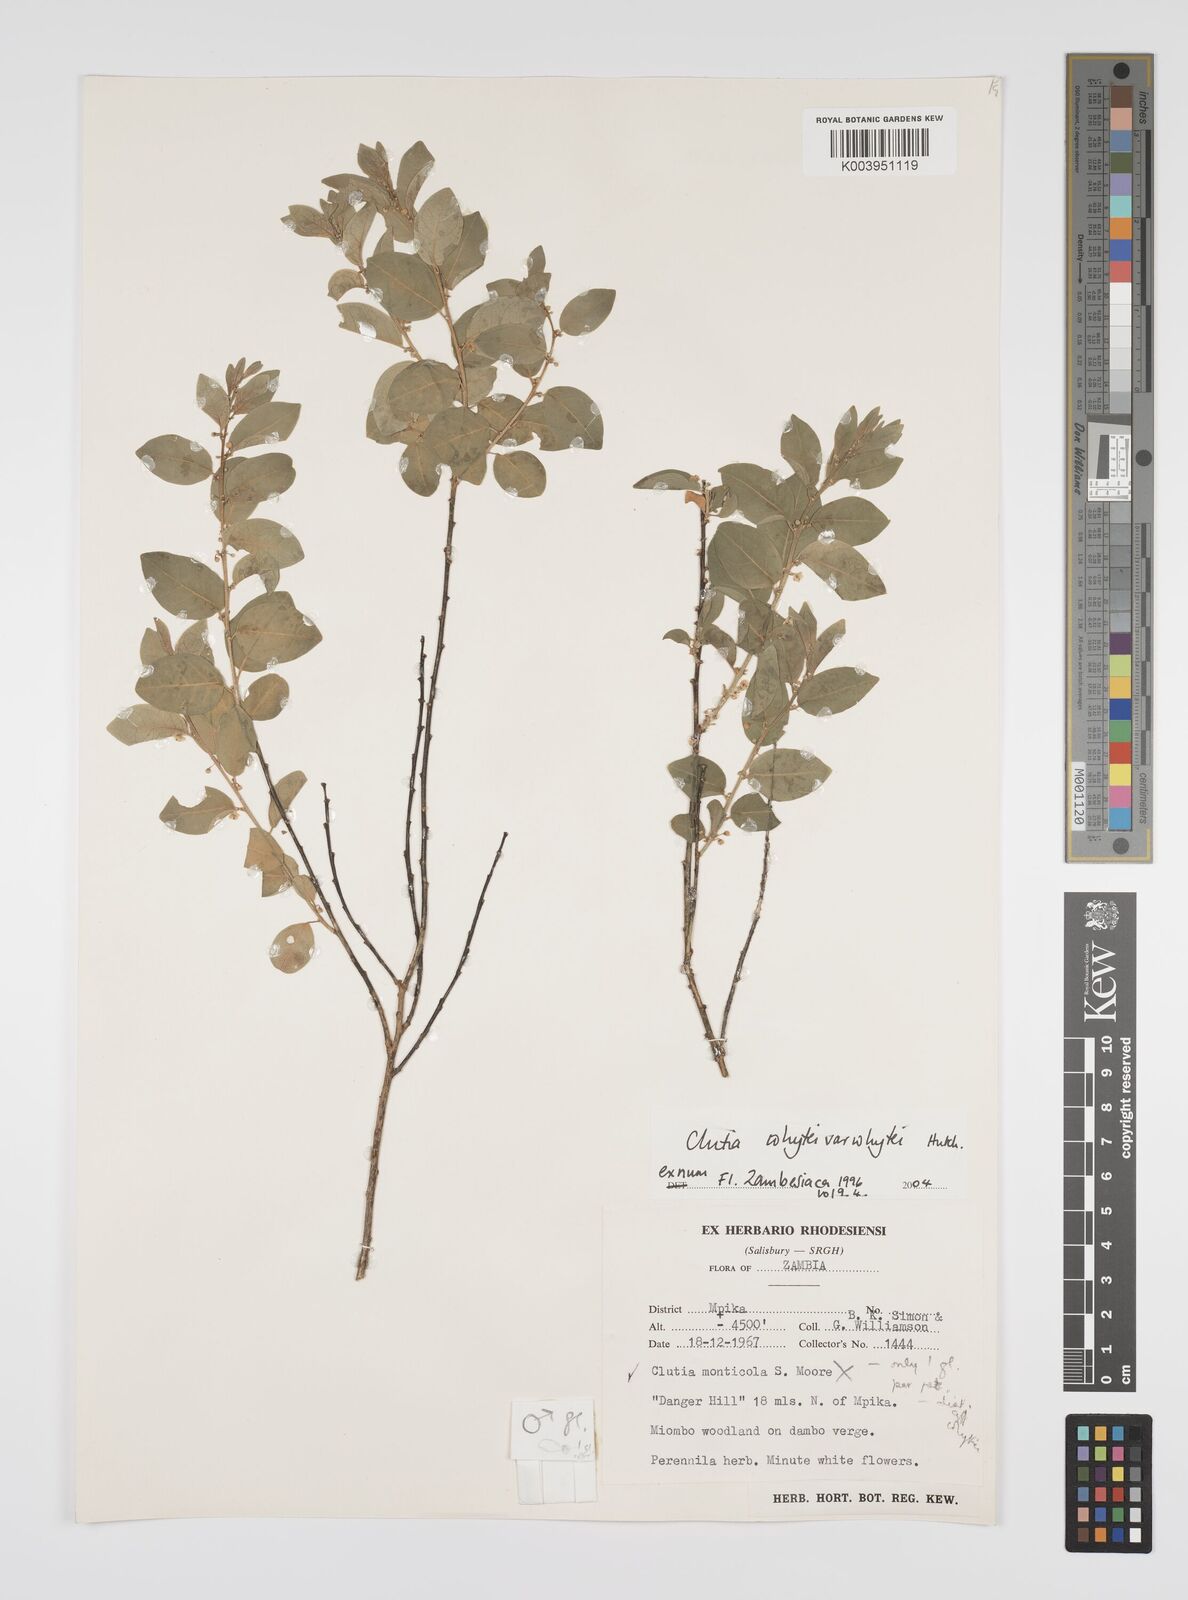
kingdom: Plantae
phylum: Tracheophyta
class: Magnoliopsida
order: Malpighiales
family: Peraceae
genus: Clutia
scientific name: Clutia whytei
